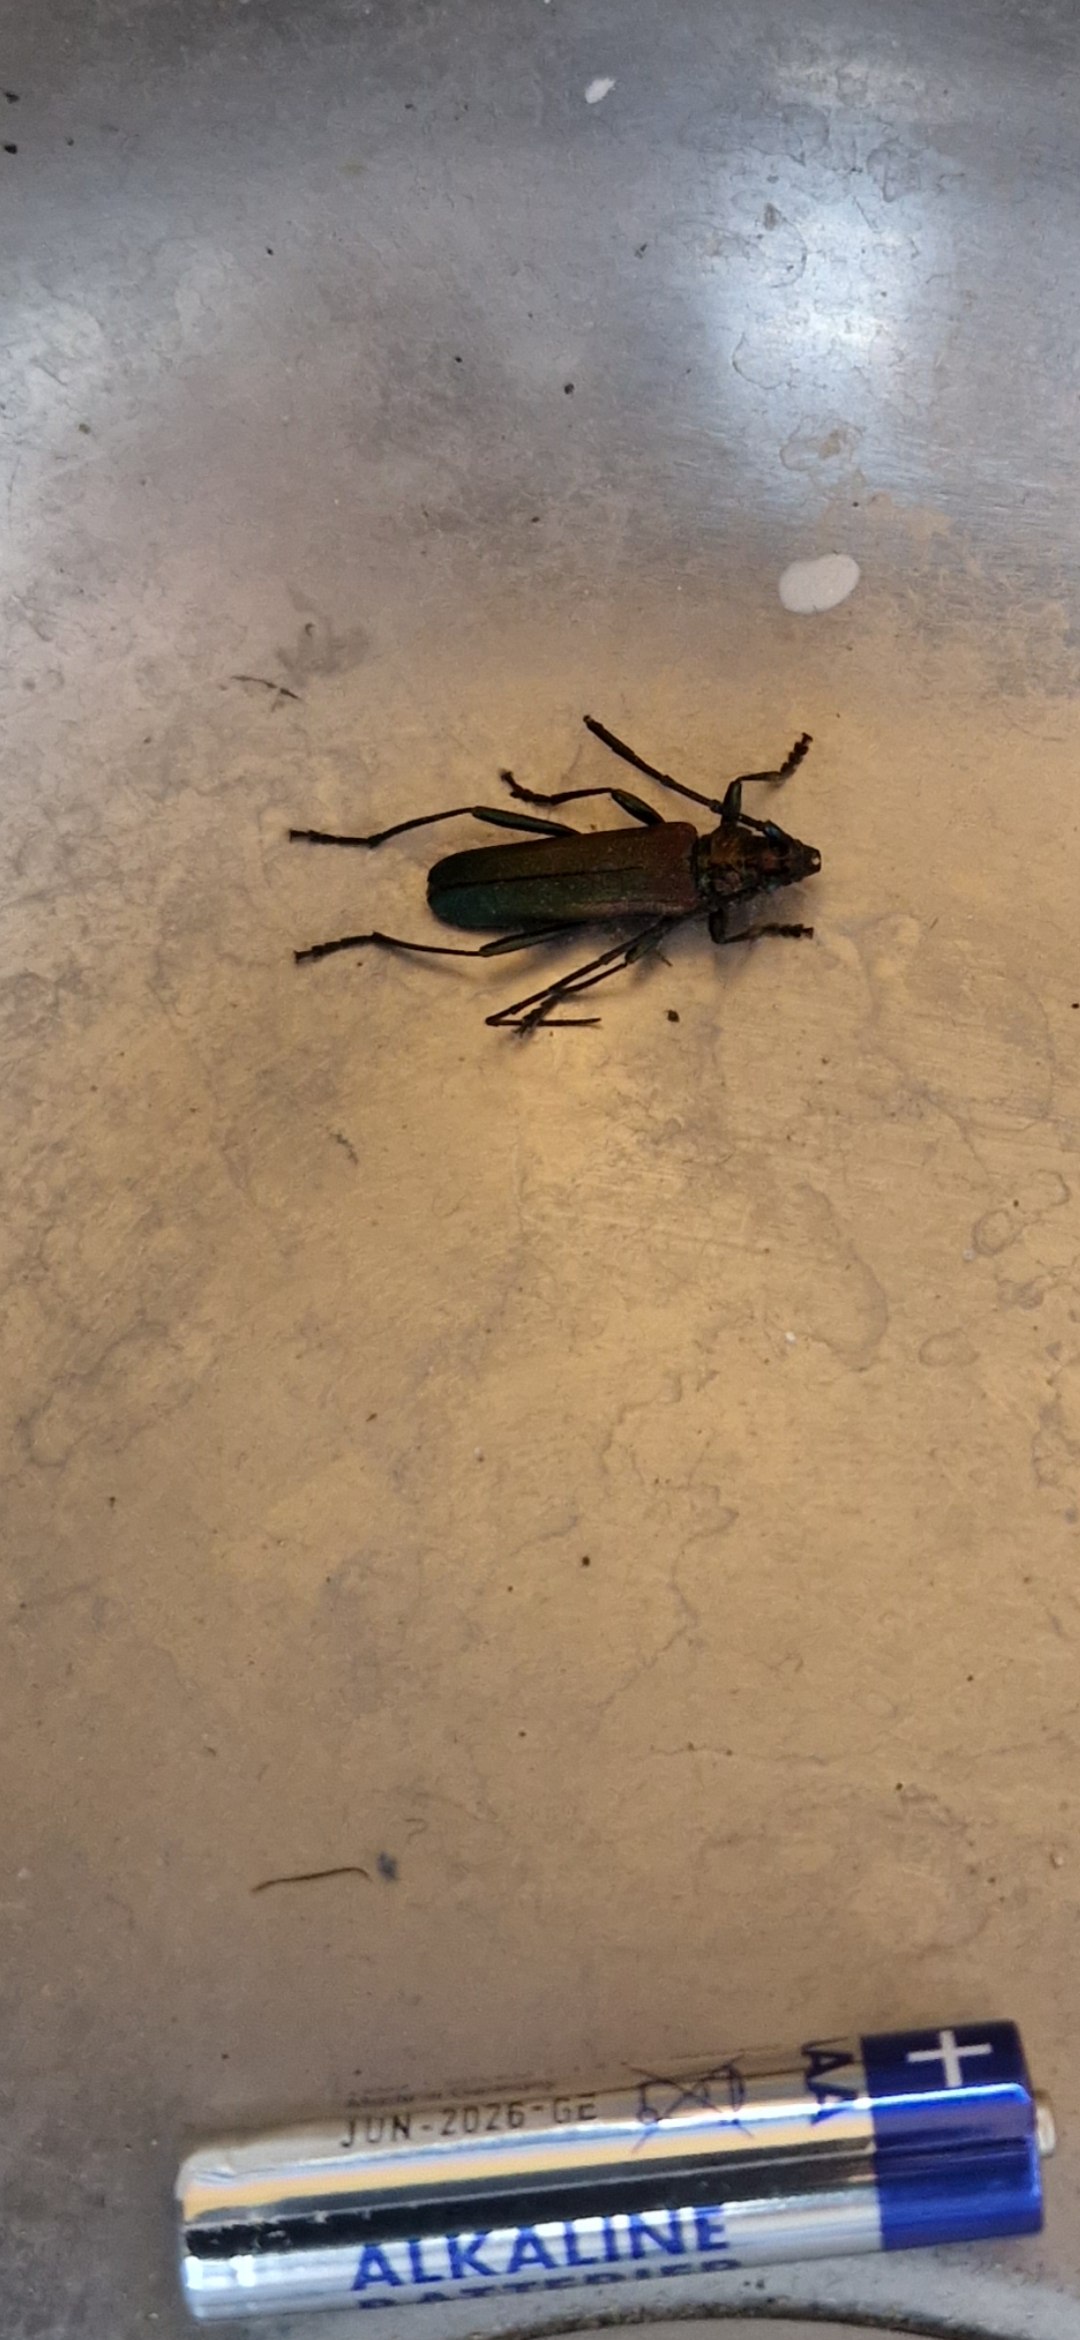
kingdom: Animalia
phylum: Arthropoda
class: Insecta
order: Coleoptera
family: Cerambycidae
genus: Aromia
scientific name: Aromia moschata
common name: Moskusbuk
